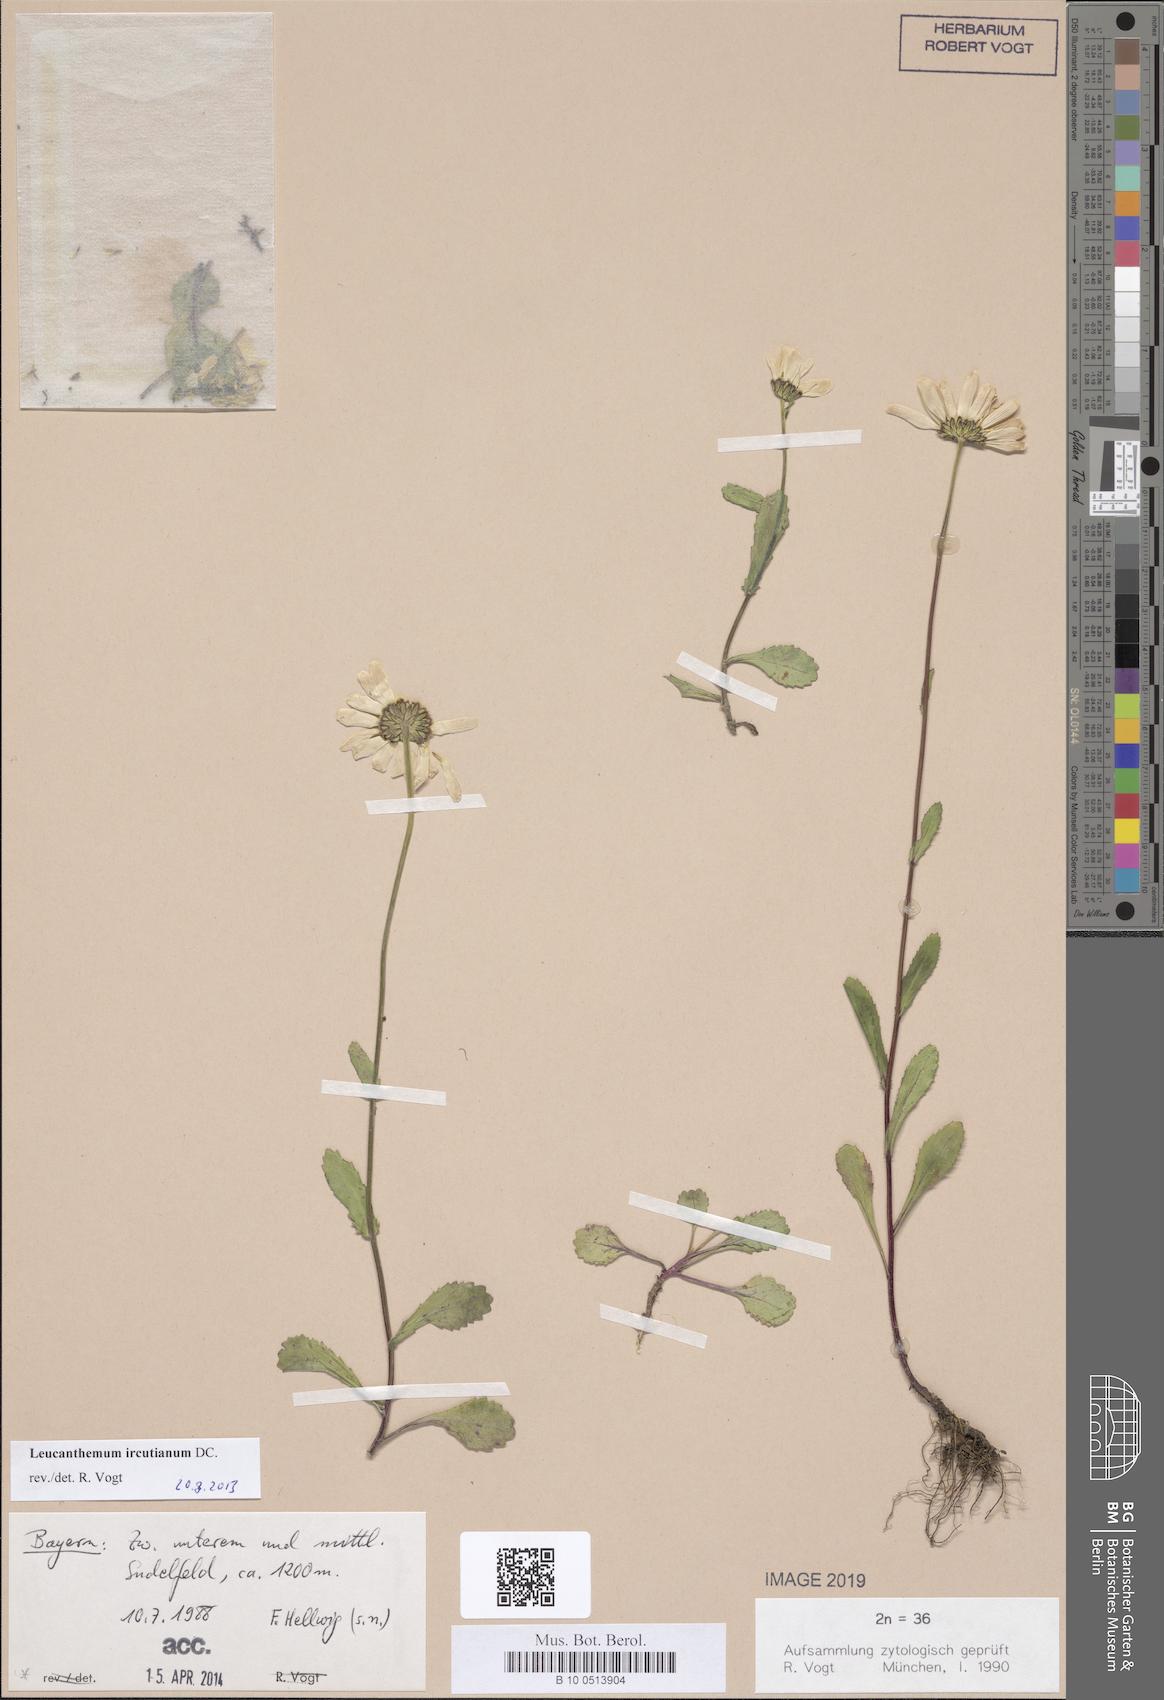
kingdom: Plantae
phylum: Tracheophyta
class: Magnoliopsida
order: Asterales
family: Asteraceae
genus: Leucanthemum
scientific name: Leucanthemum ircutianum
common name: Daisy
